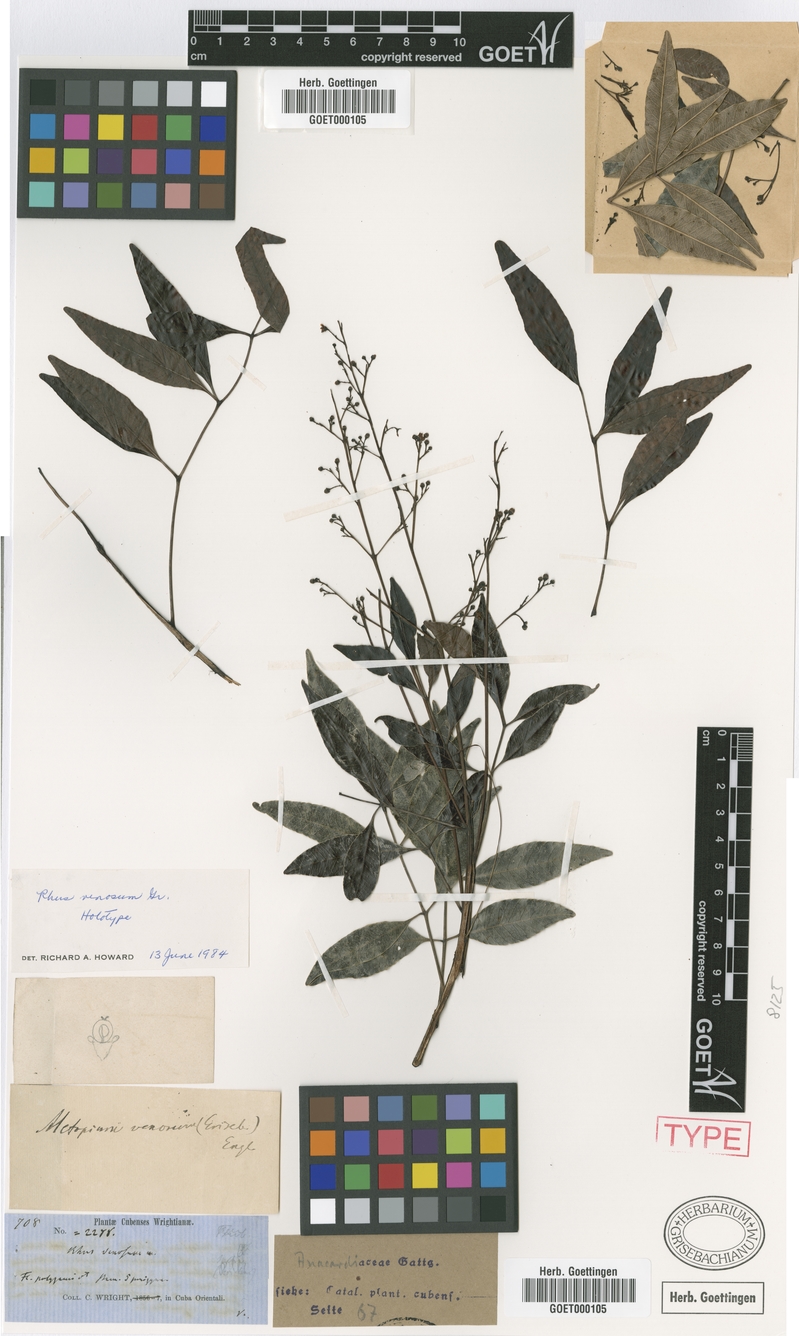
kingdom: Plantae
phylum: Tracheophyta
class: Magnoliopsida
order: Sapindales
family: Anacardiaceae
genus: Metopium
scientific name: Metopium venosum
